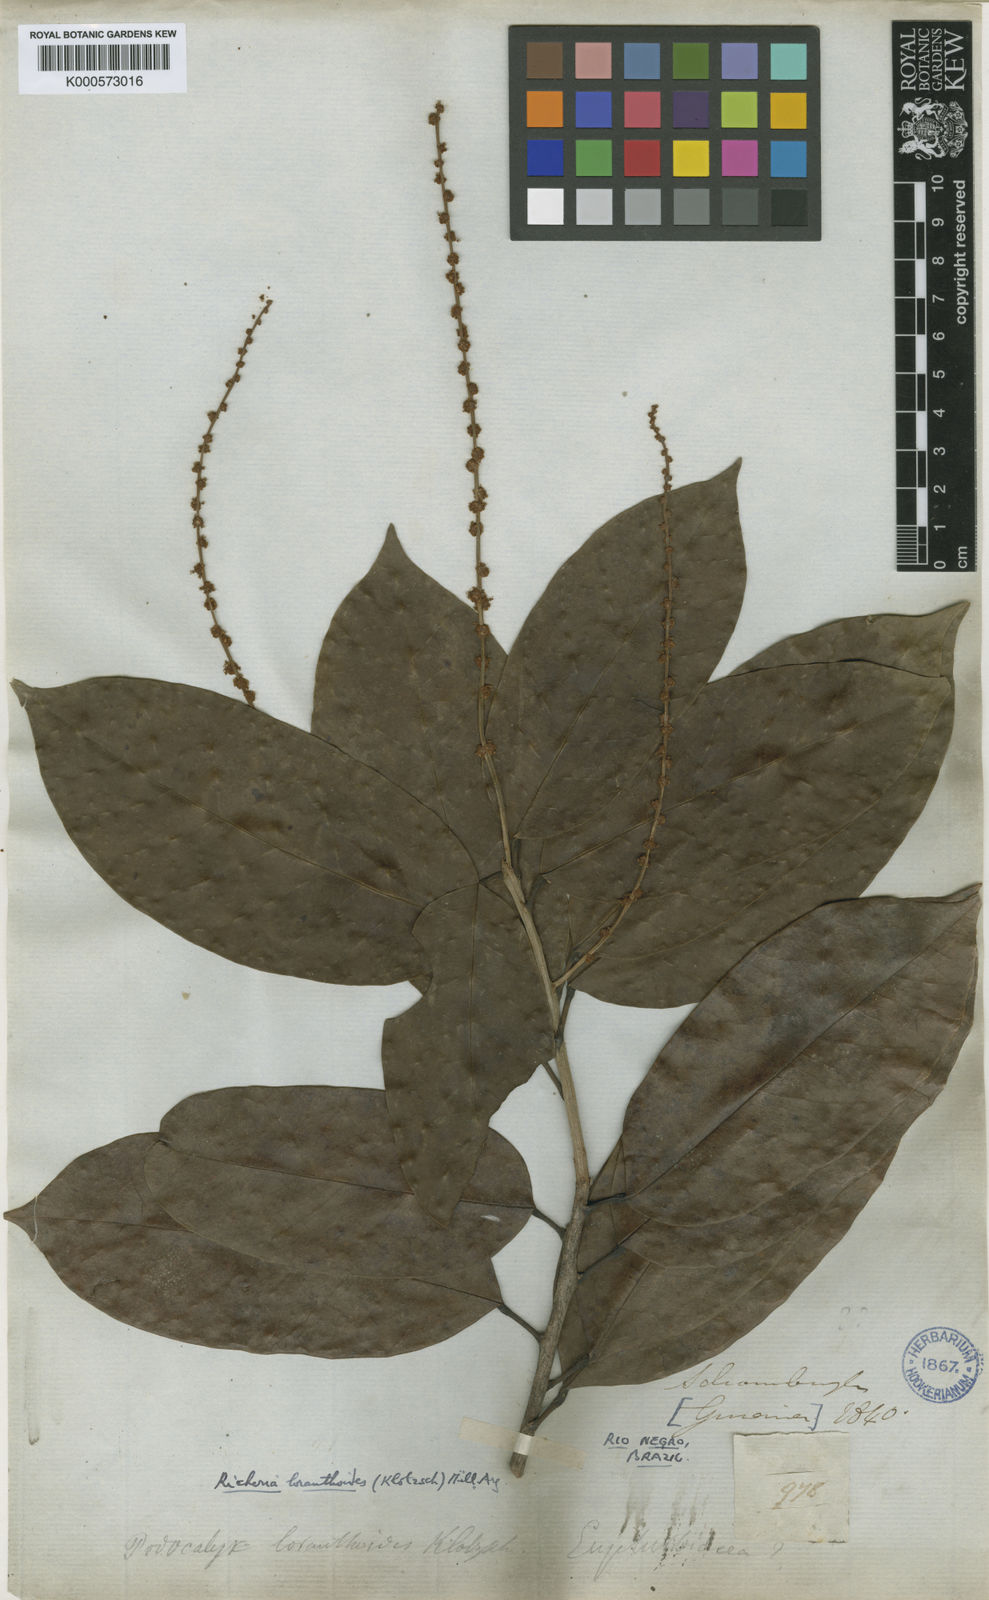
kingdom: Plantae
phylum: Tracheophyta
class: Magnoliopsida
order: Malpighiales
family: Picrodendraceae
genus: Podocalyx
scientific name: Podocalyx loranthoides
